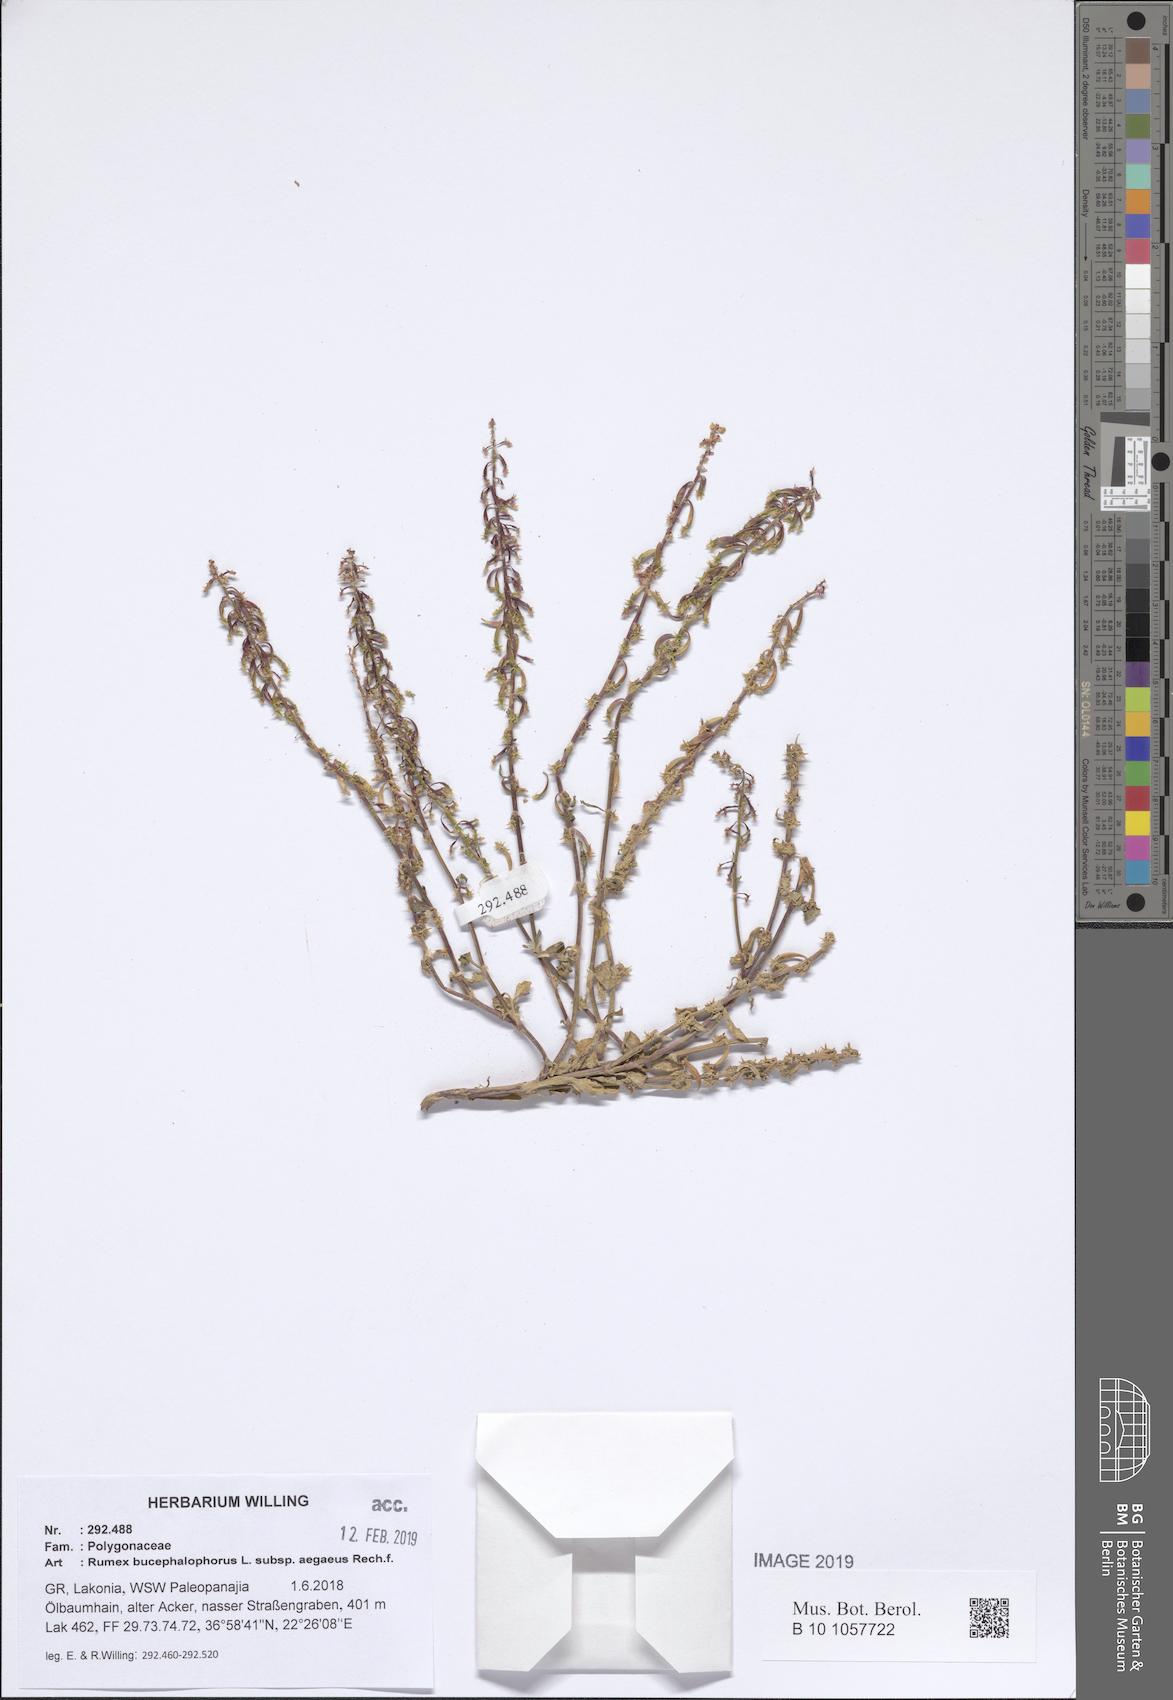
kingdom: Plantae
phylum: Tracheophyta
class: Magnoliopsida
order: Caryophyllales
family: Polygonaceae
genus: Rumex
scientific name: Rumex bucephalophorus
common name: Red dock
